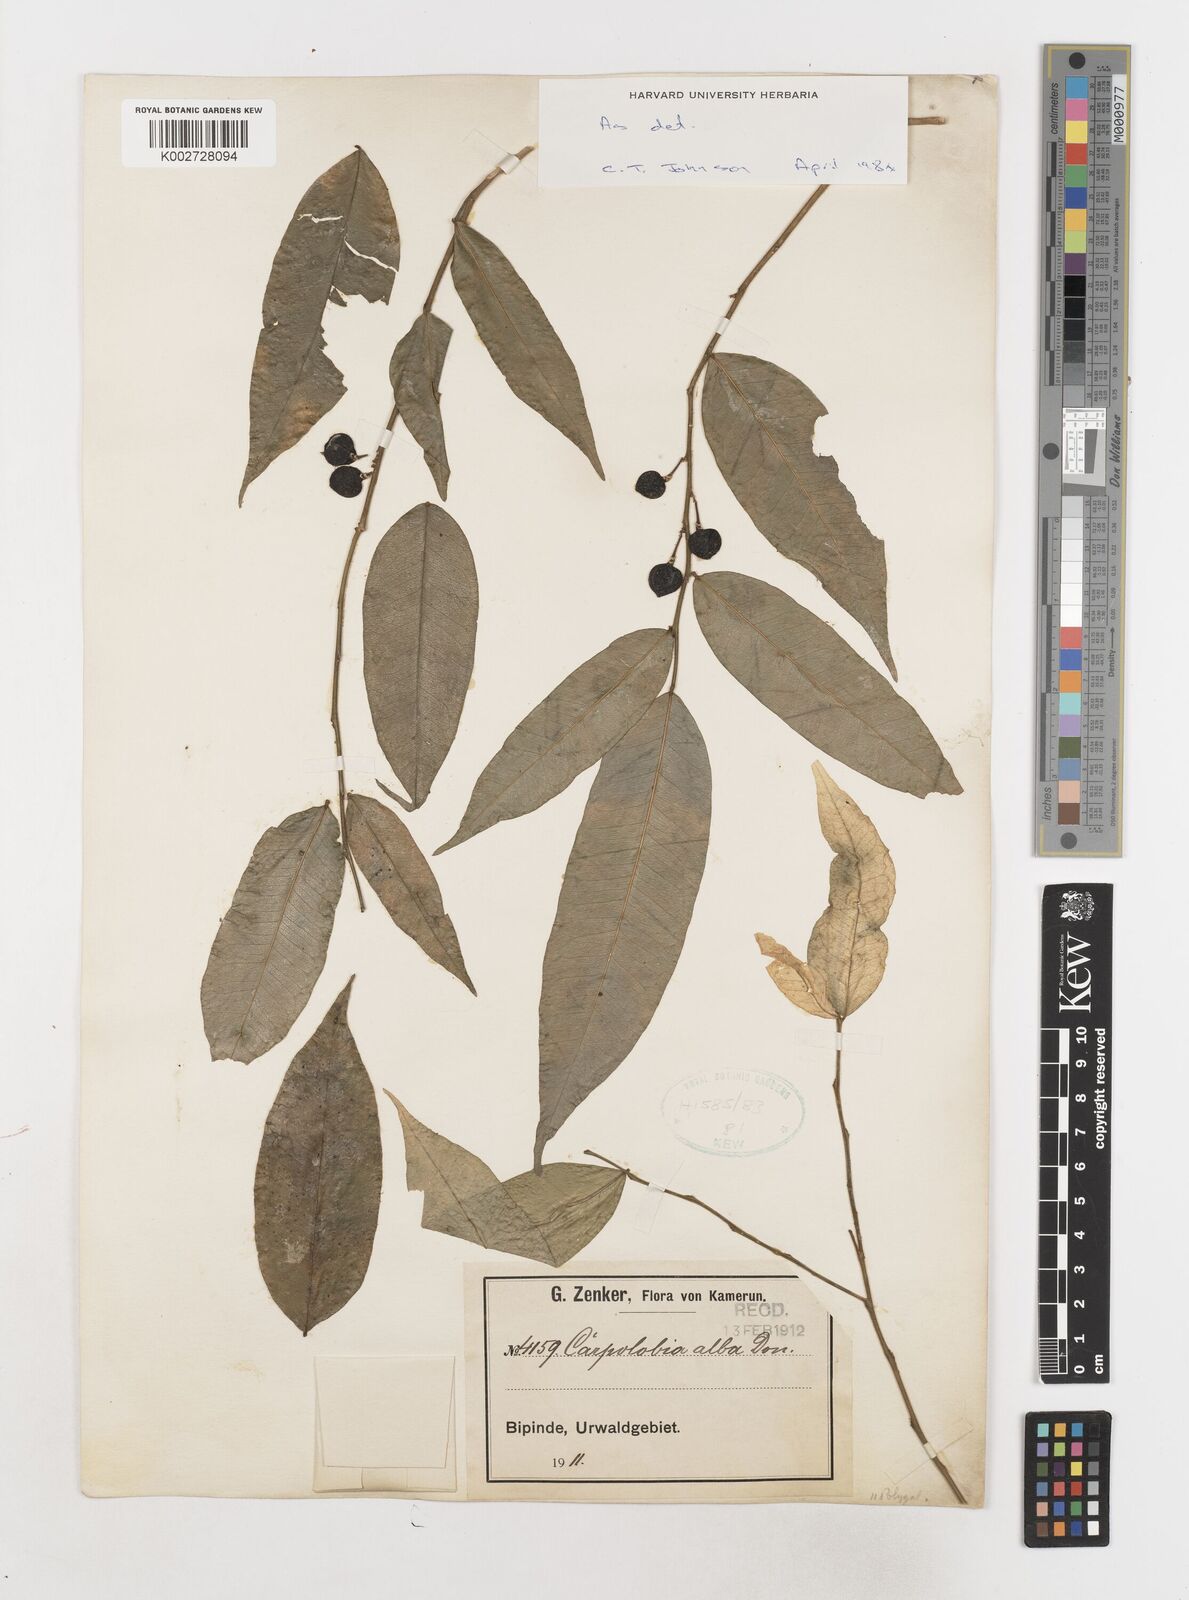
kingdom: Plantae
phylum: Tracheophyta
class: Magnoliopsida
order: Fabales
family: Polygalaceae
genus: Carpolobia
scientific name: Carpolobia alba
